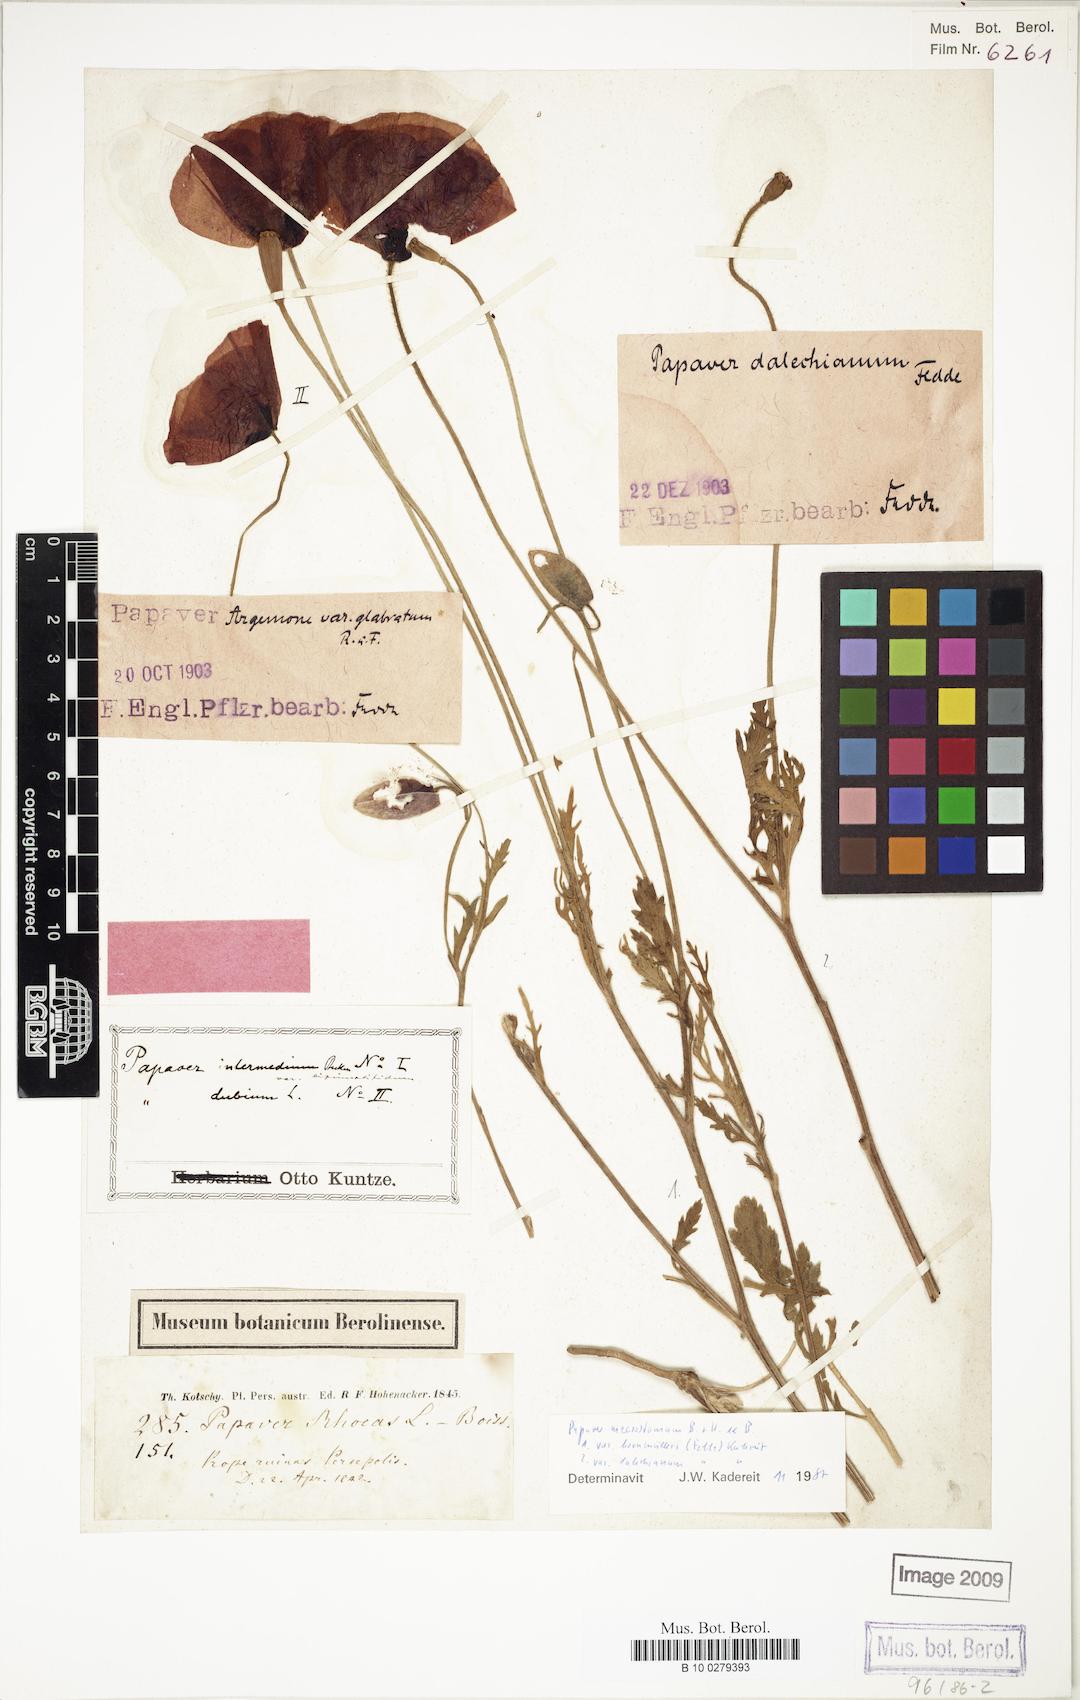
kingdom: Plantae
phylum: Tracheophyta
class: Magnoliopsida
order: Ranunculales
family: Papaveraceae
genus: Papaver
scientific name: Papaver macrostomum
